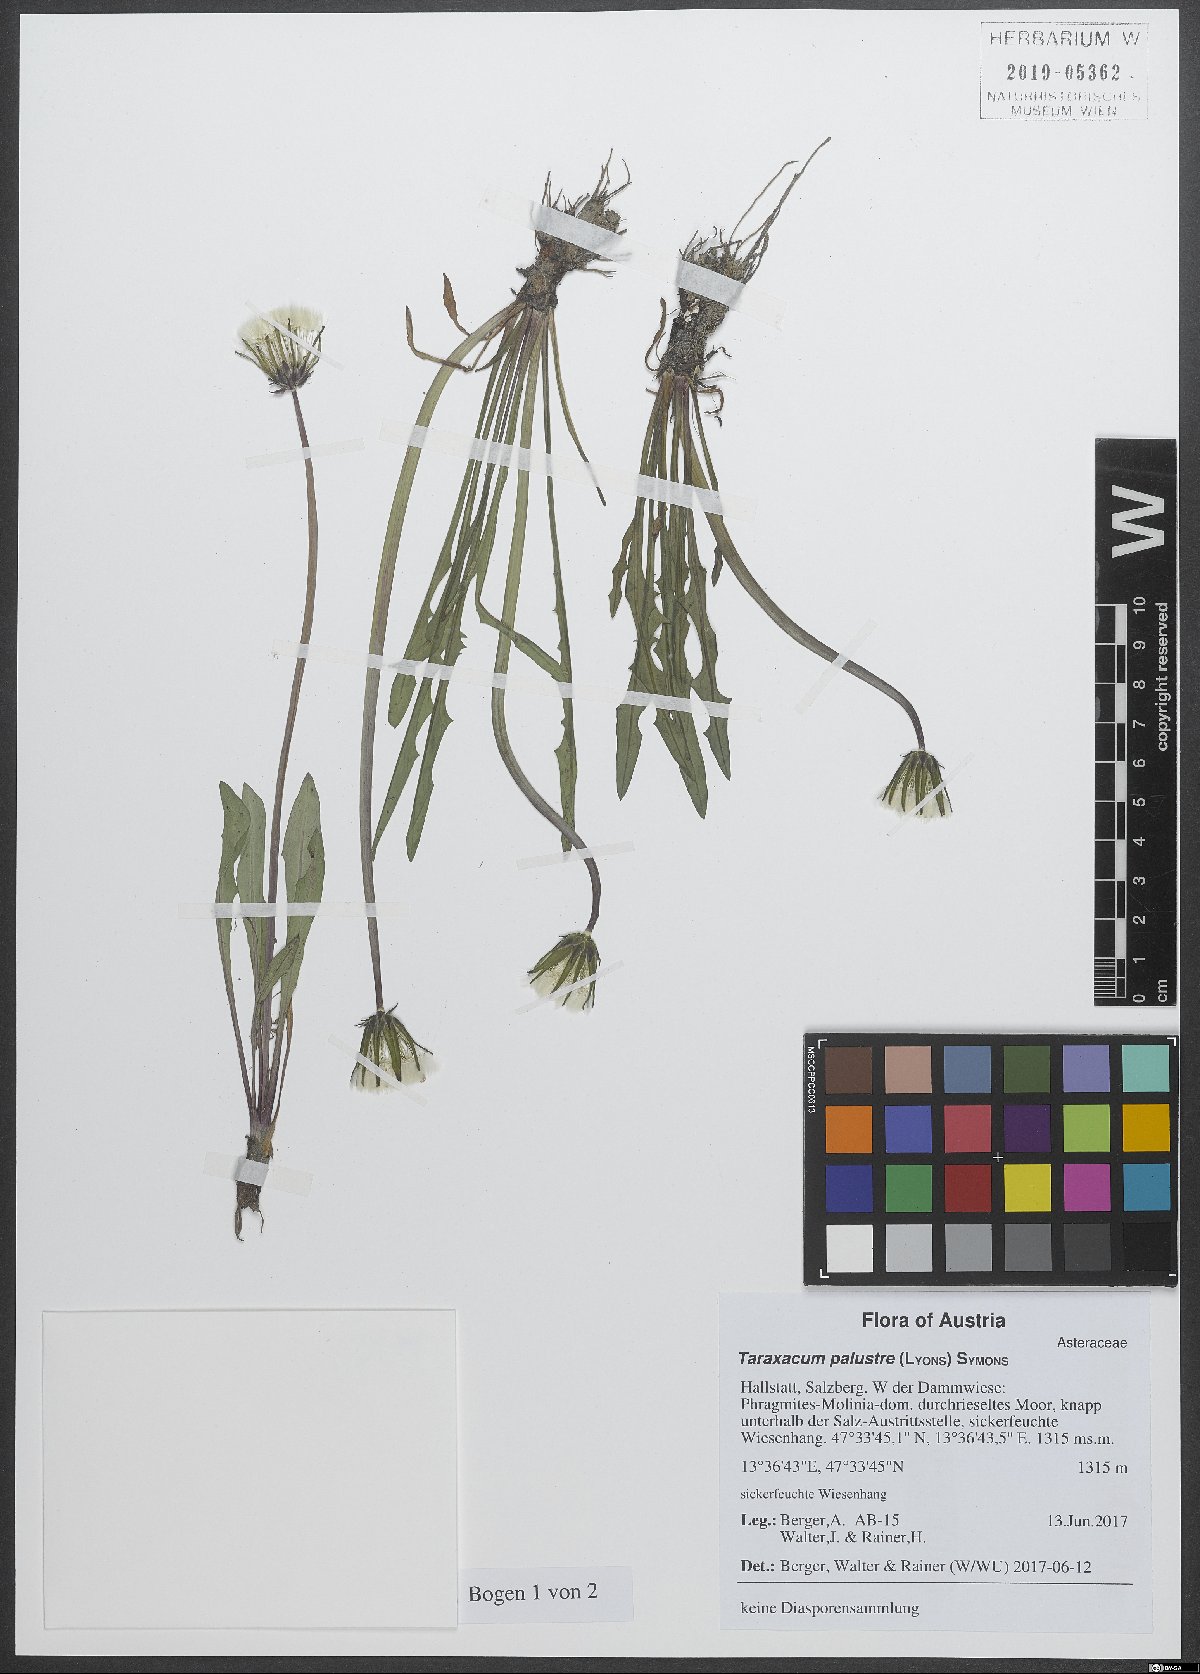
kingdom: Plantae
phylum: Tracheophyta
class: Magnoliopsida
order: Asterales
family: Asteraceae
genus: Taraxacum
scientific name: Taraxacum palustre
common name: Marsh dandelion
